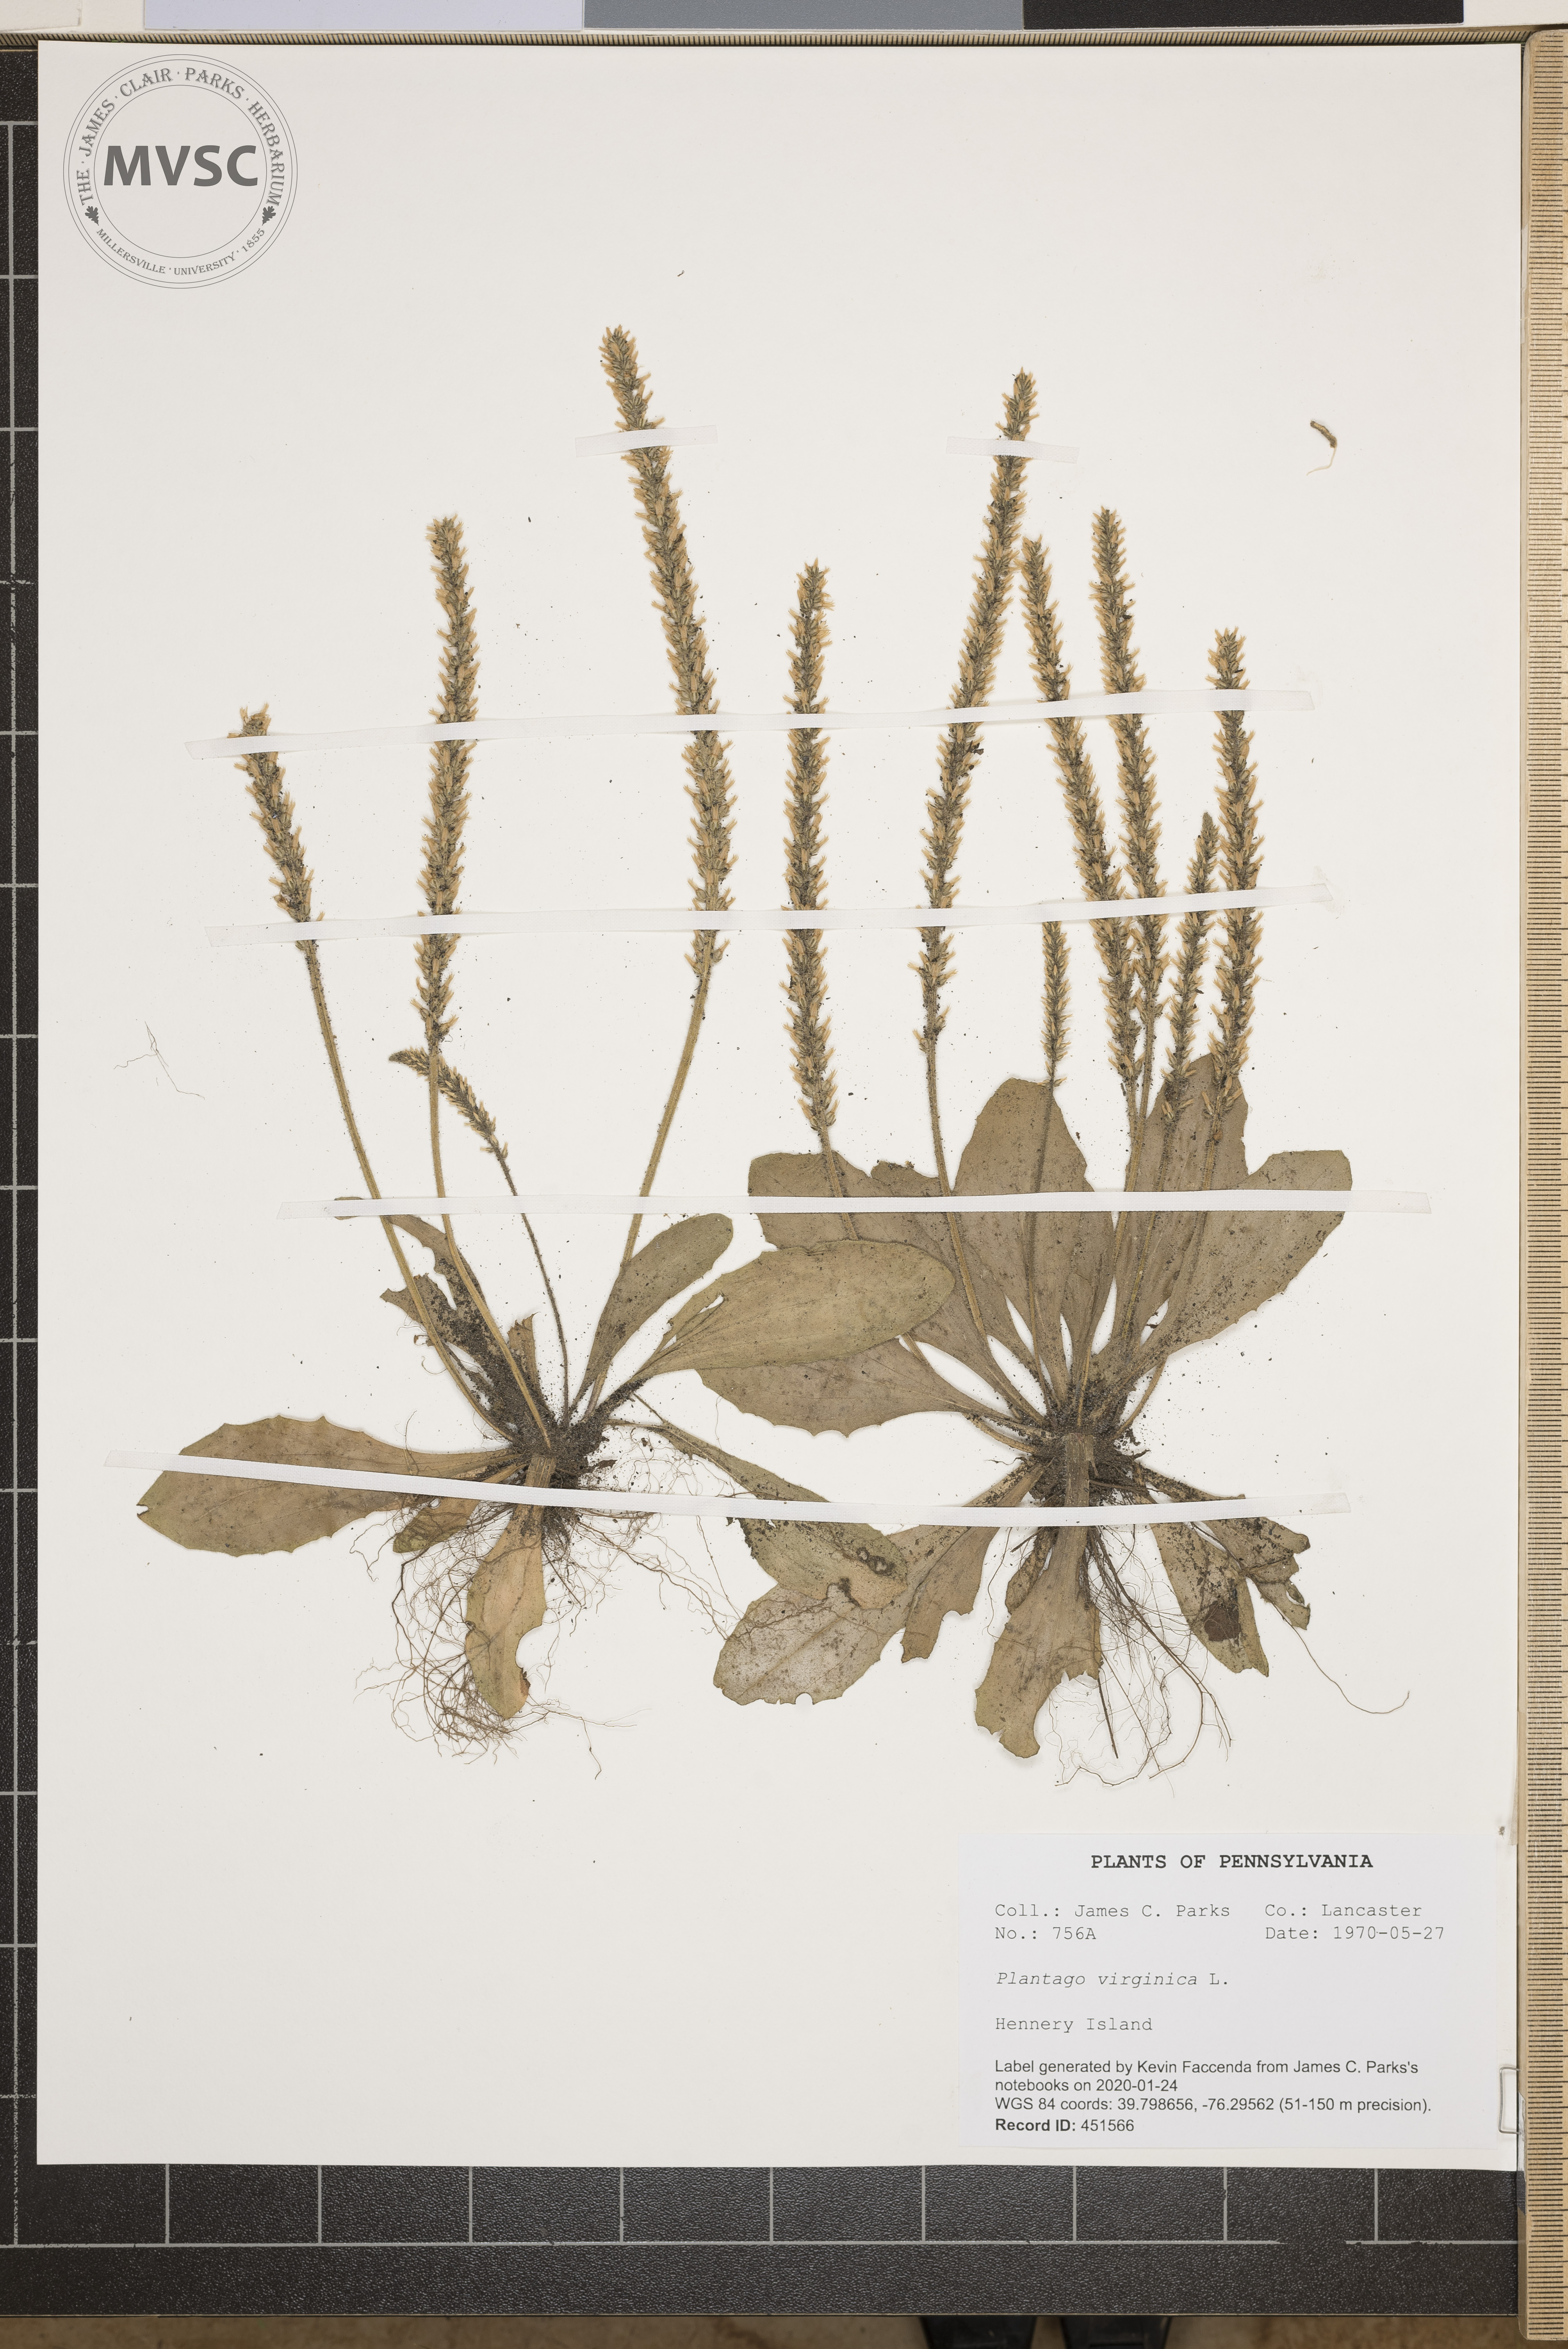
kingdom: Plantae
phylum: Tracheophyta
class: Magnoliopsida
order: Lamiales
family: Plantaginaceae
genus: Plantago
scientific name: Plantago virginica
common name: Hoary plantain
